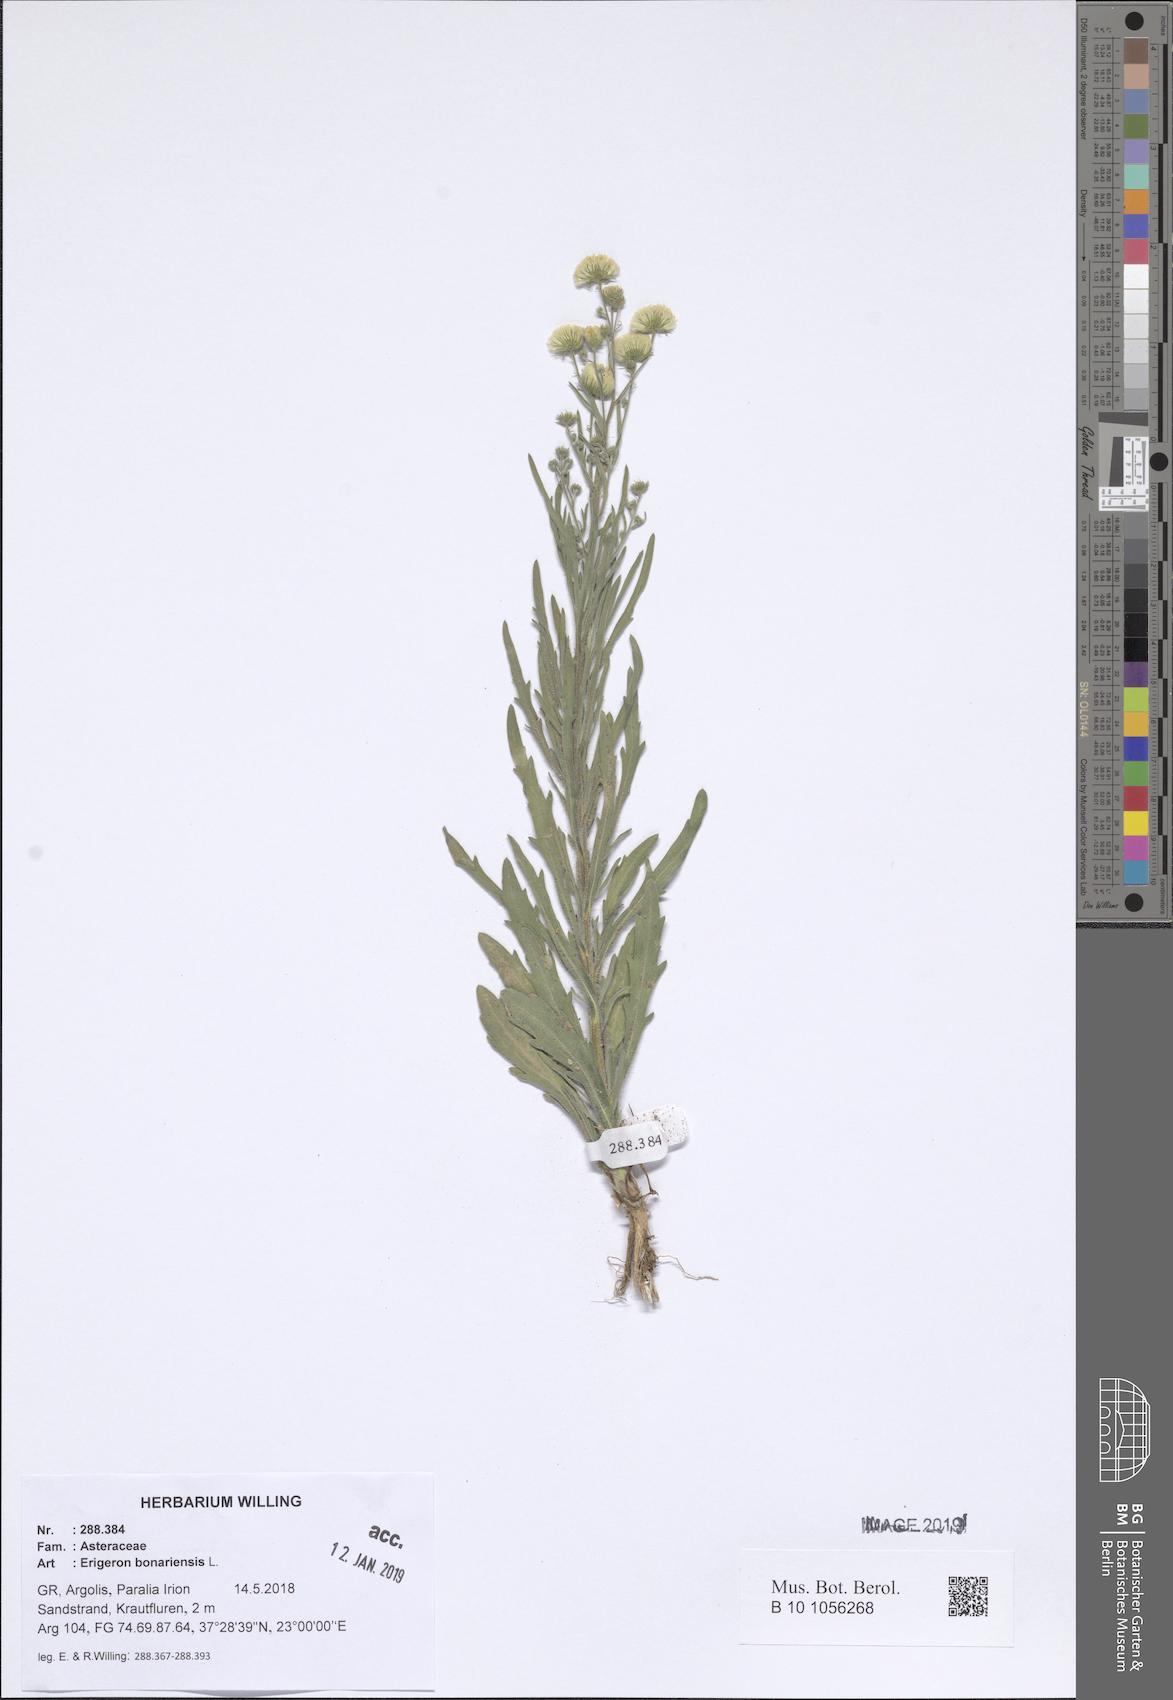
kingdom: Plantae
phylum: Tracheophyta
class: Magnoliopsida
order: Asterales
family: Asteraceae
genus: Erigeron
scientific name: Erigeron bonariensis
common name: Argentine fleabane
